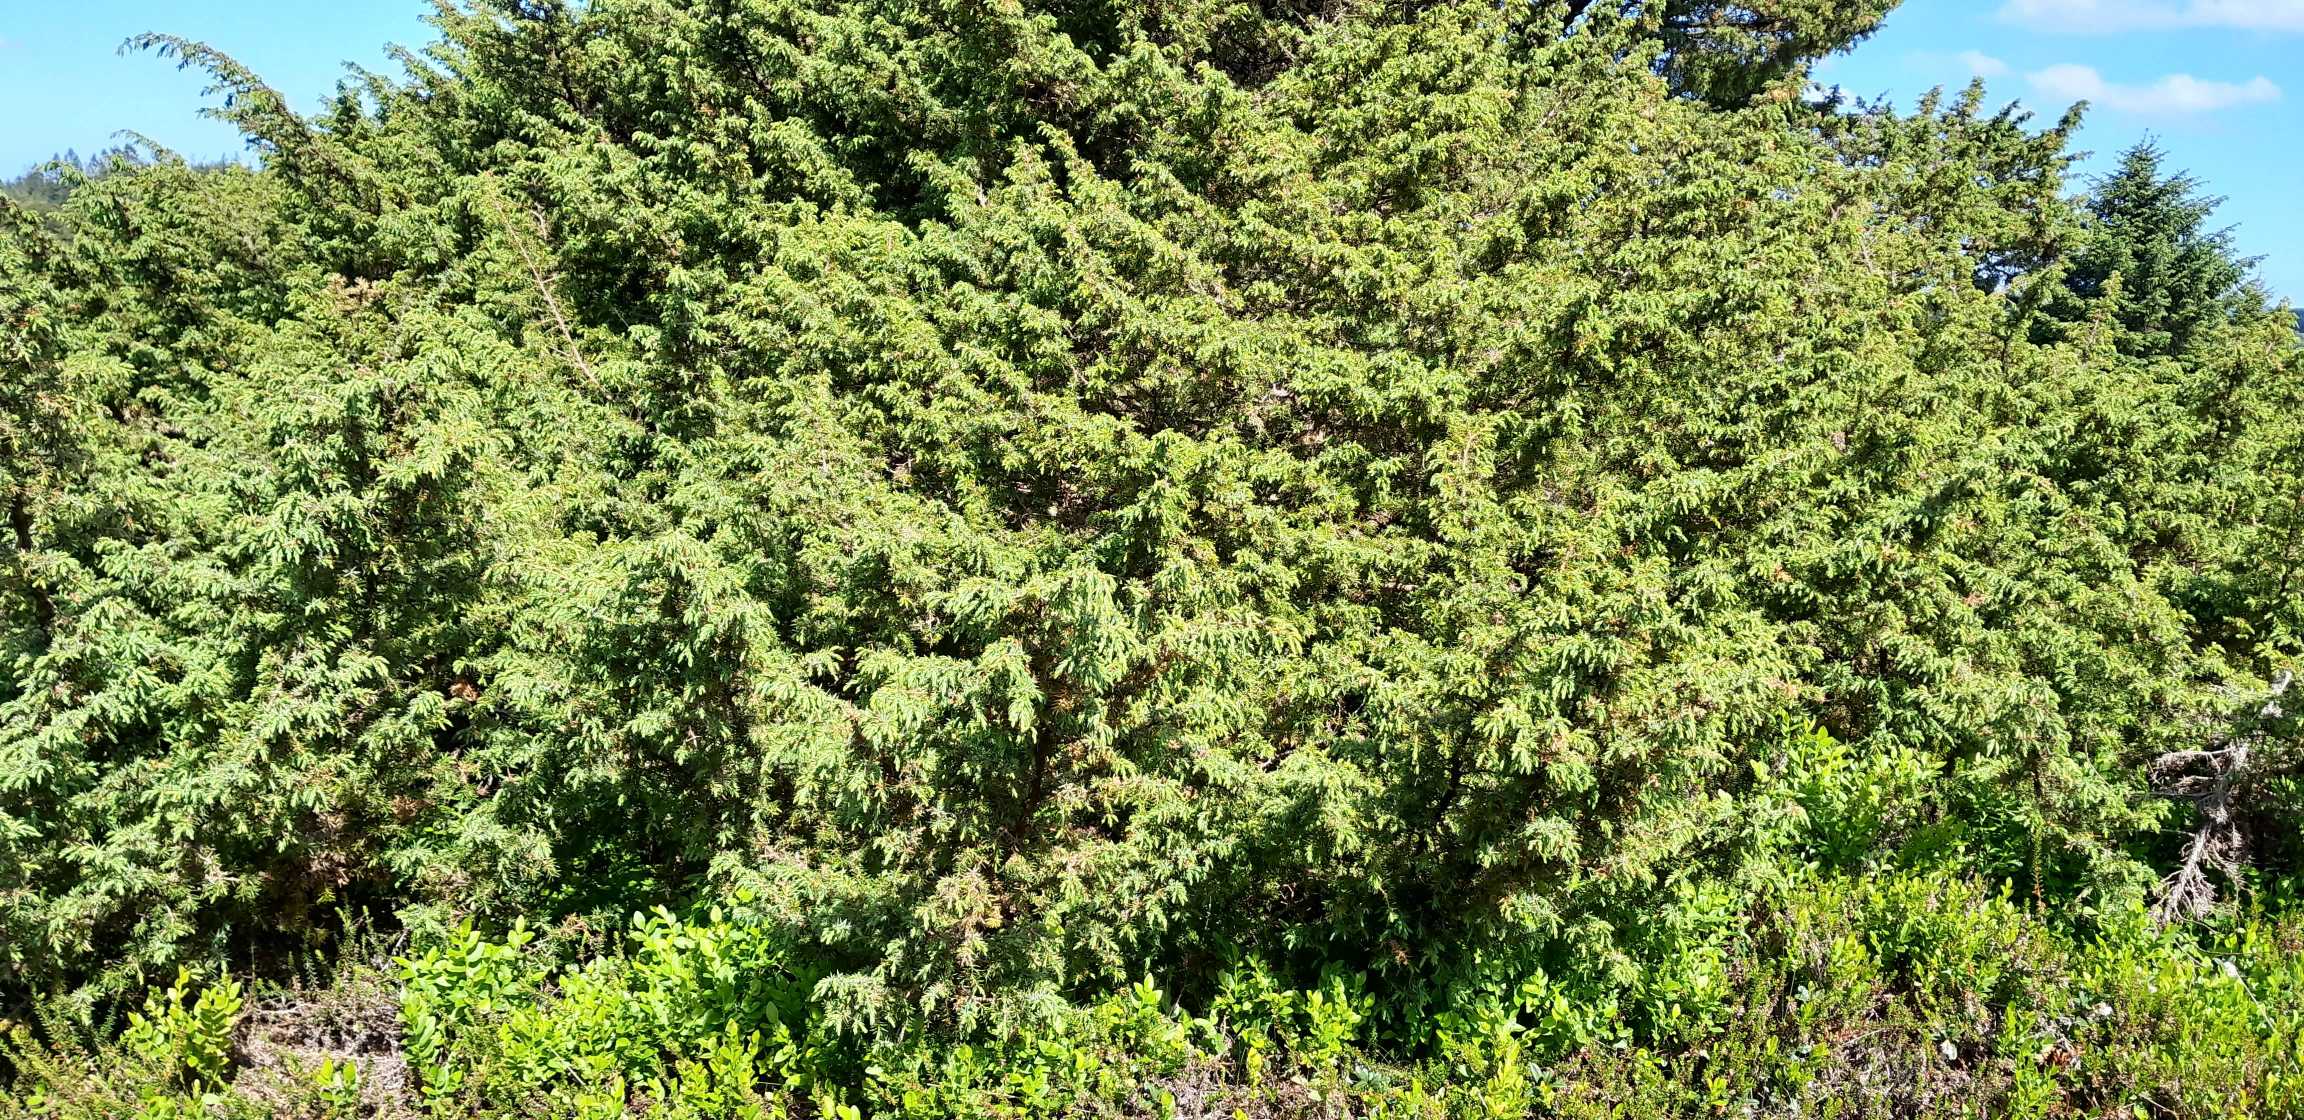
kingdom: Plantae
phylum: Tracheophyta
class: Pinopsida
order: Pinales
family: Cupressaceae
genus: Juniperus
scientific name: Juniperus communis
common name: Almindelig ene
